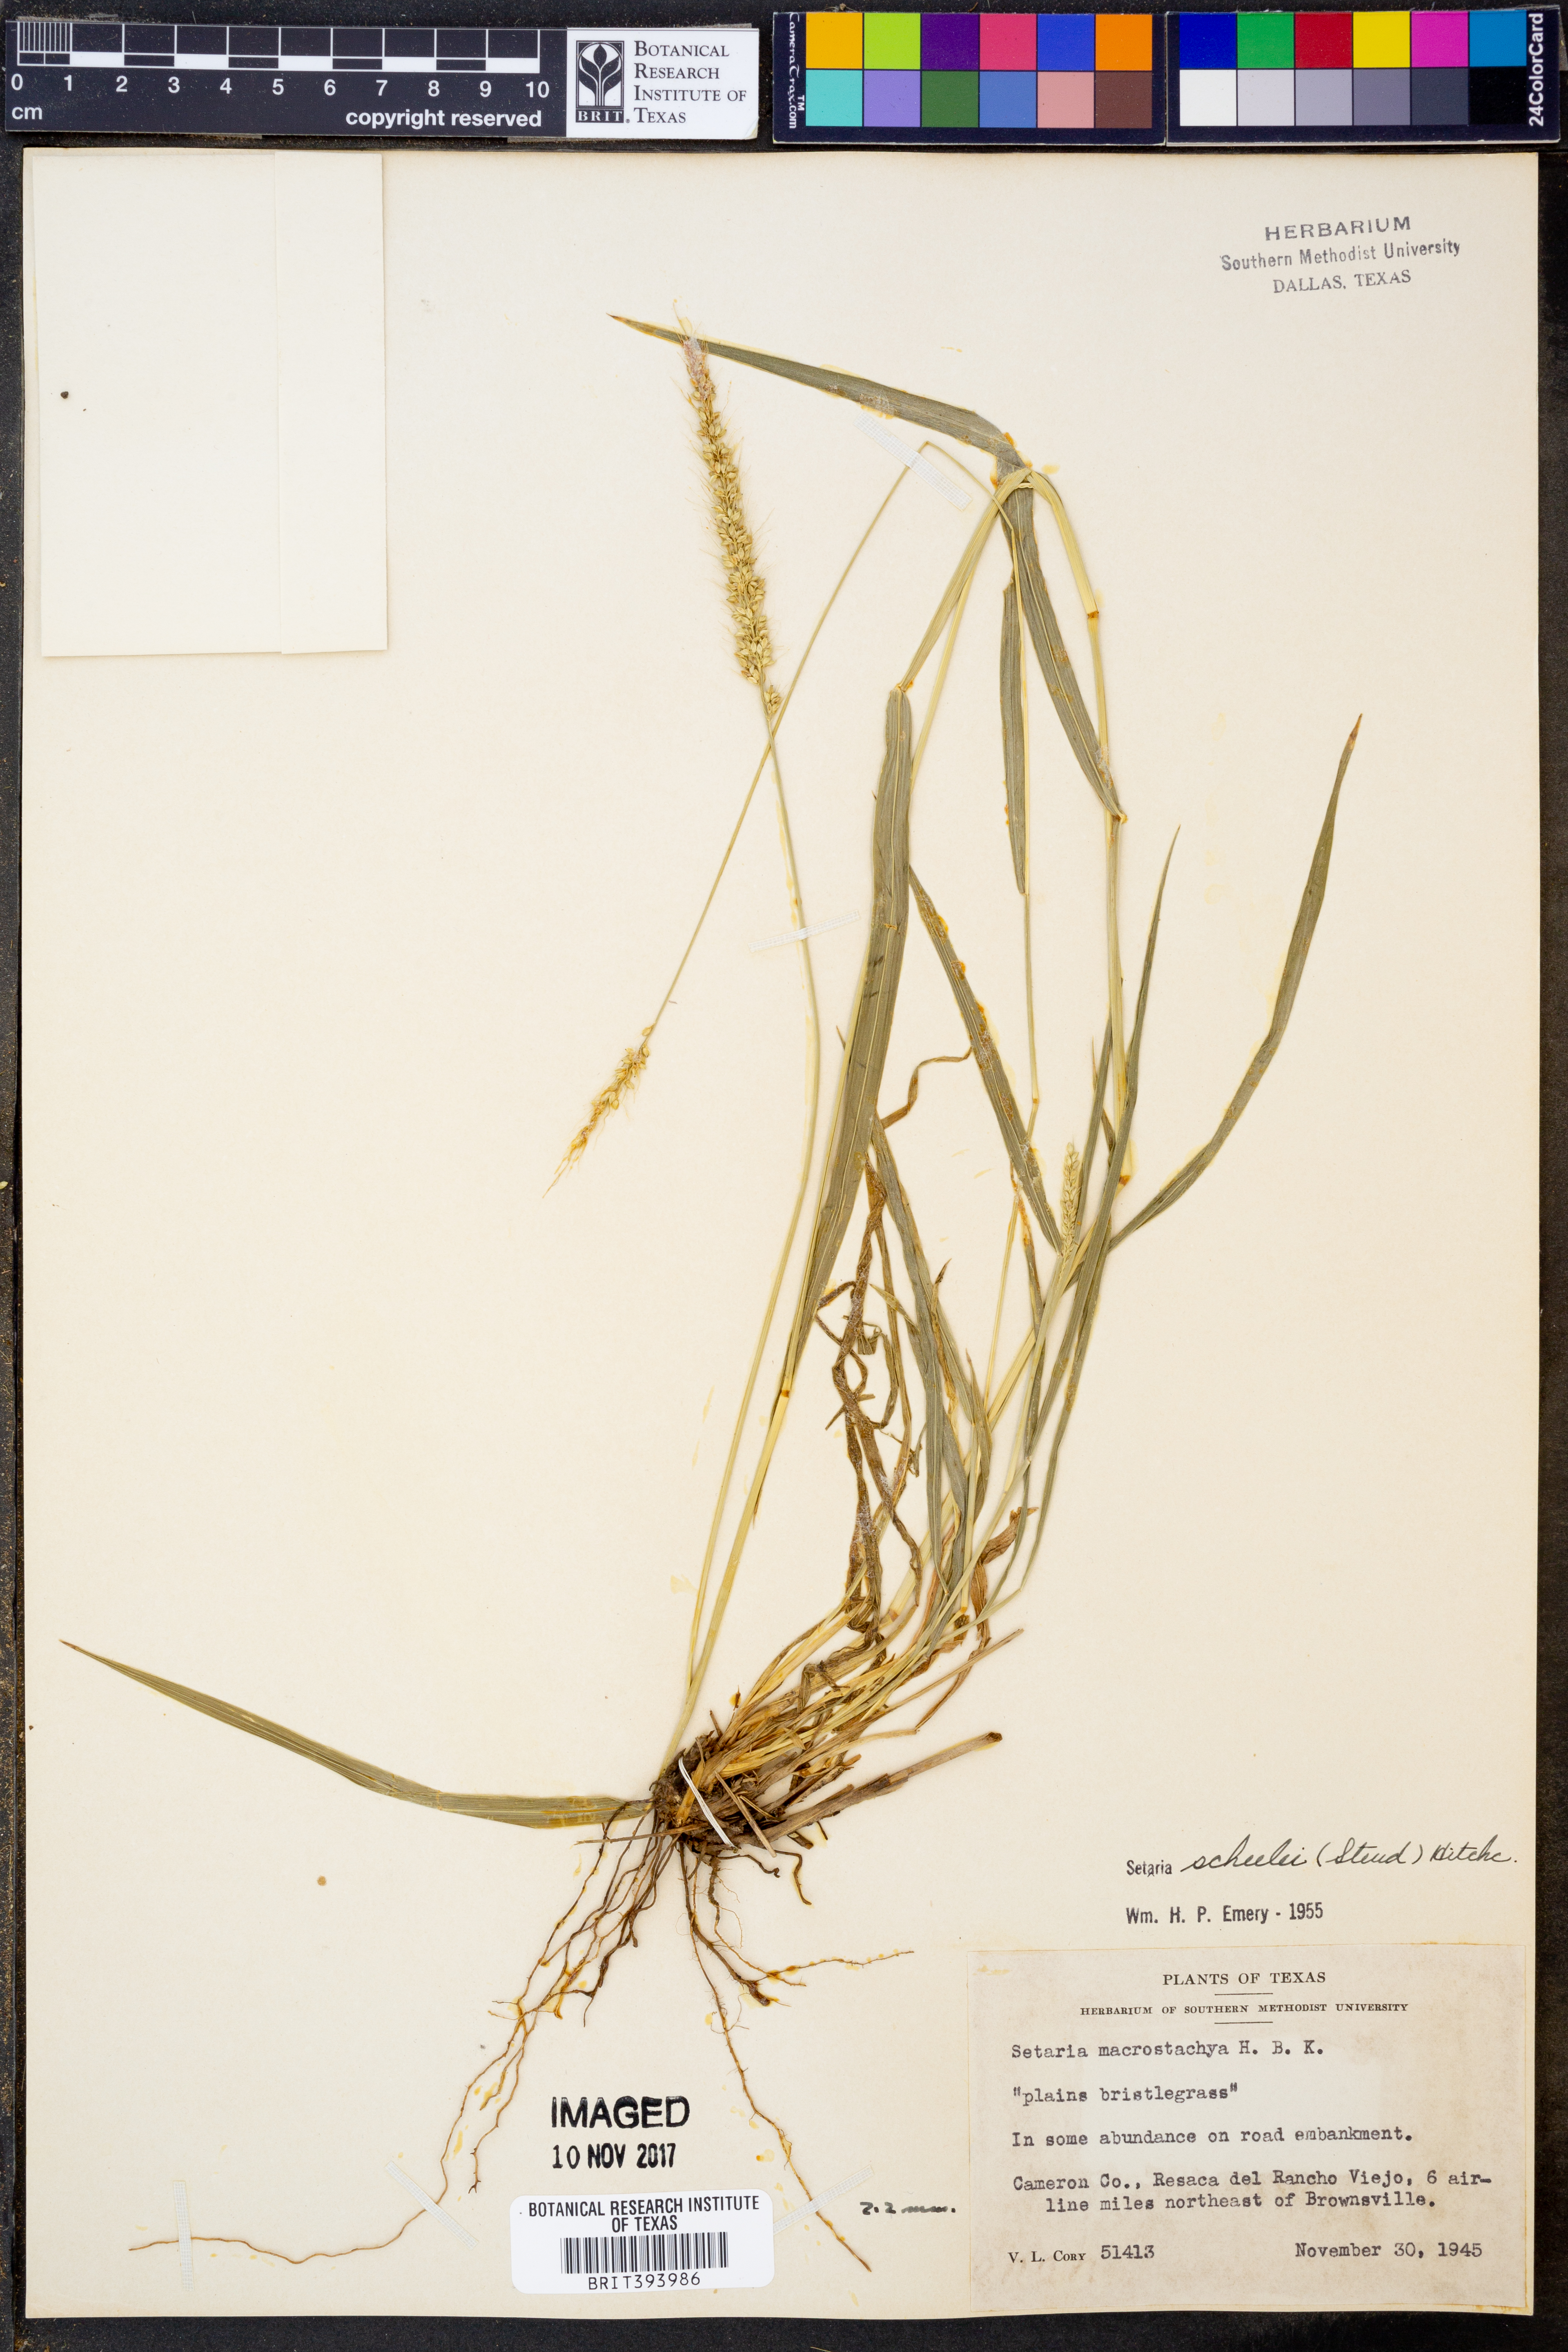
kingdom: Plantae
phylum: Tracheophyta
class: Liliopsida
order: Poales
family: Poaceae
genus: Setaria
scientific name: Setaria scheelei
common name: Southwestern bristle grass
